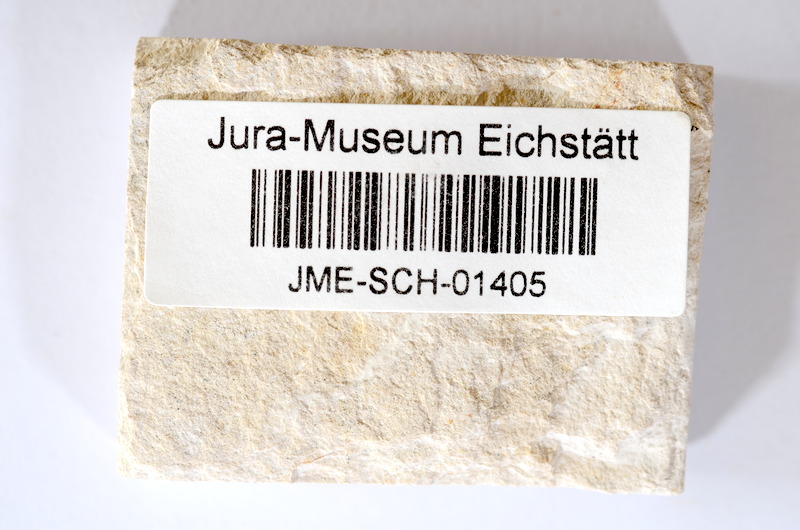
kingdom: Animalia
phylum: Chordata
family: Ascalaboidae
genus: Tharsis
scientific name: Tharsis dubius
